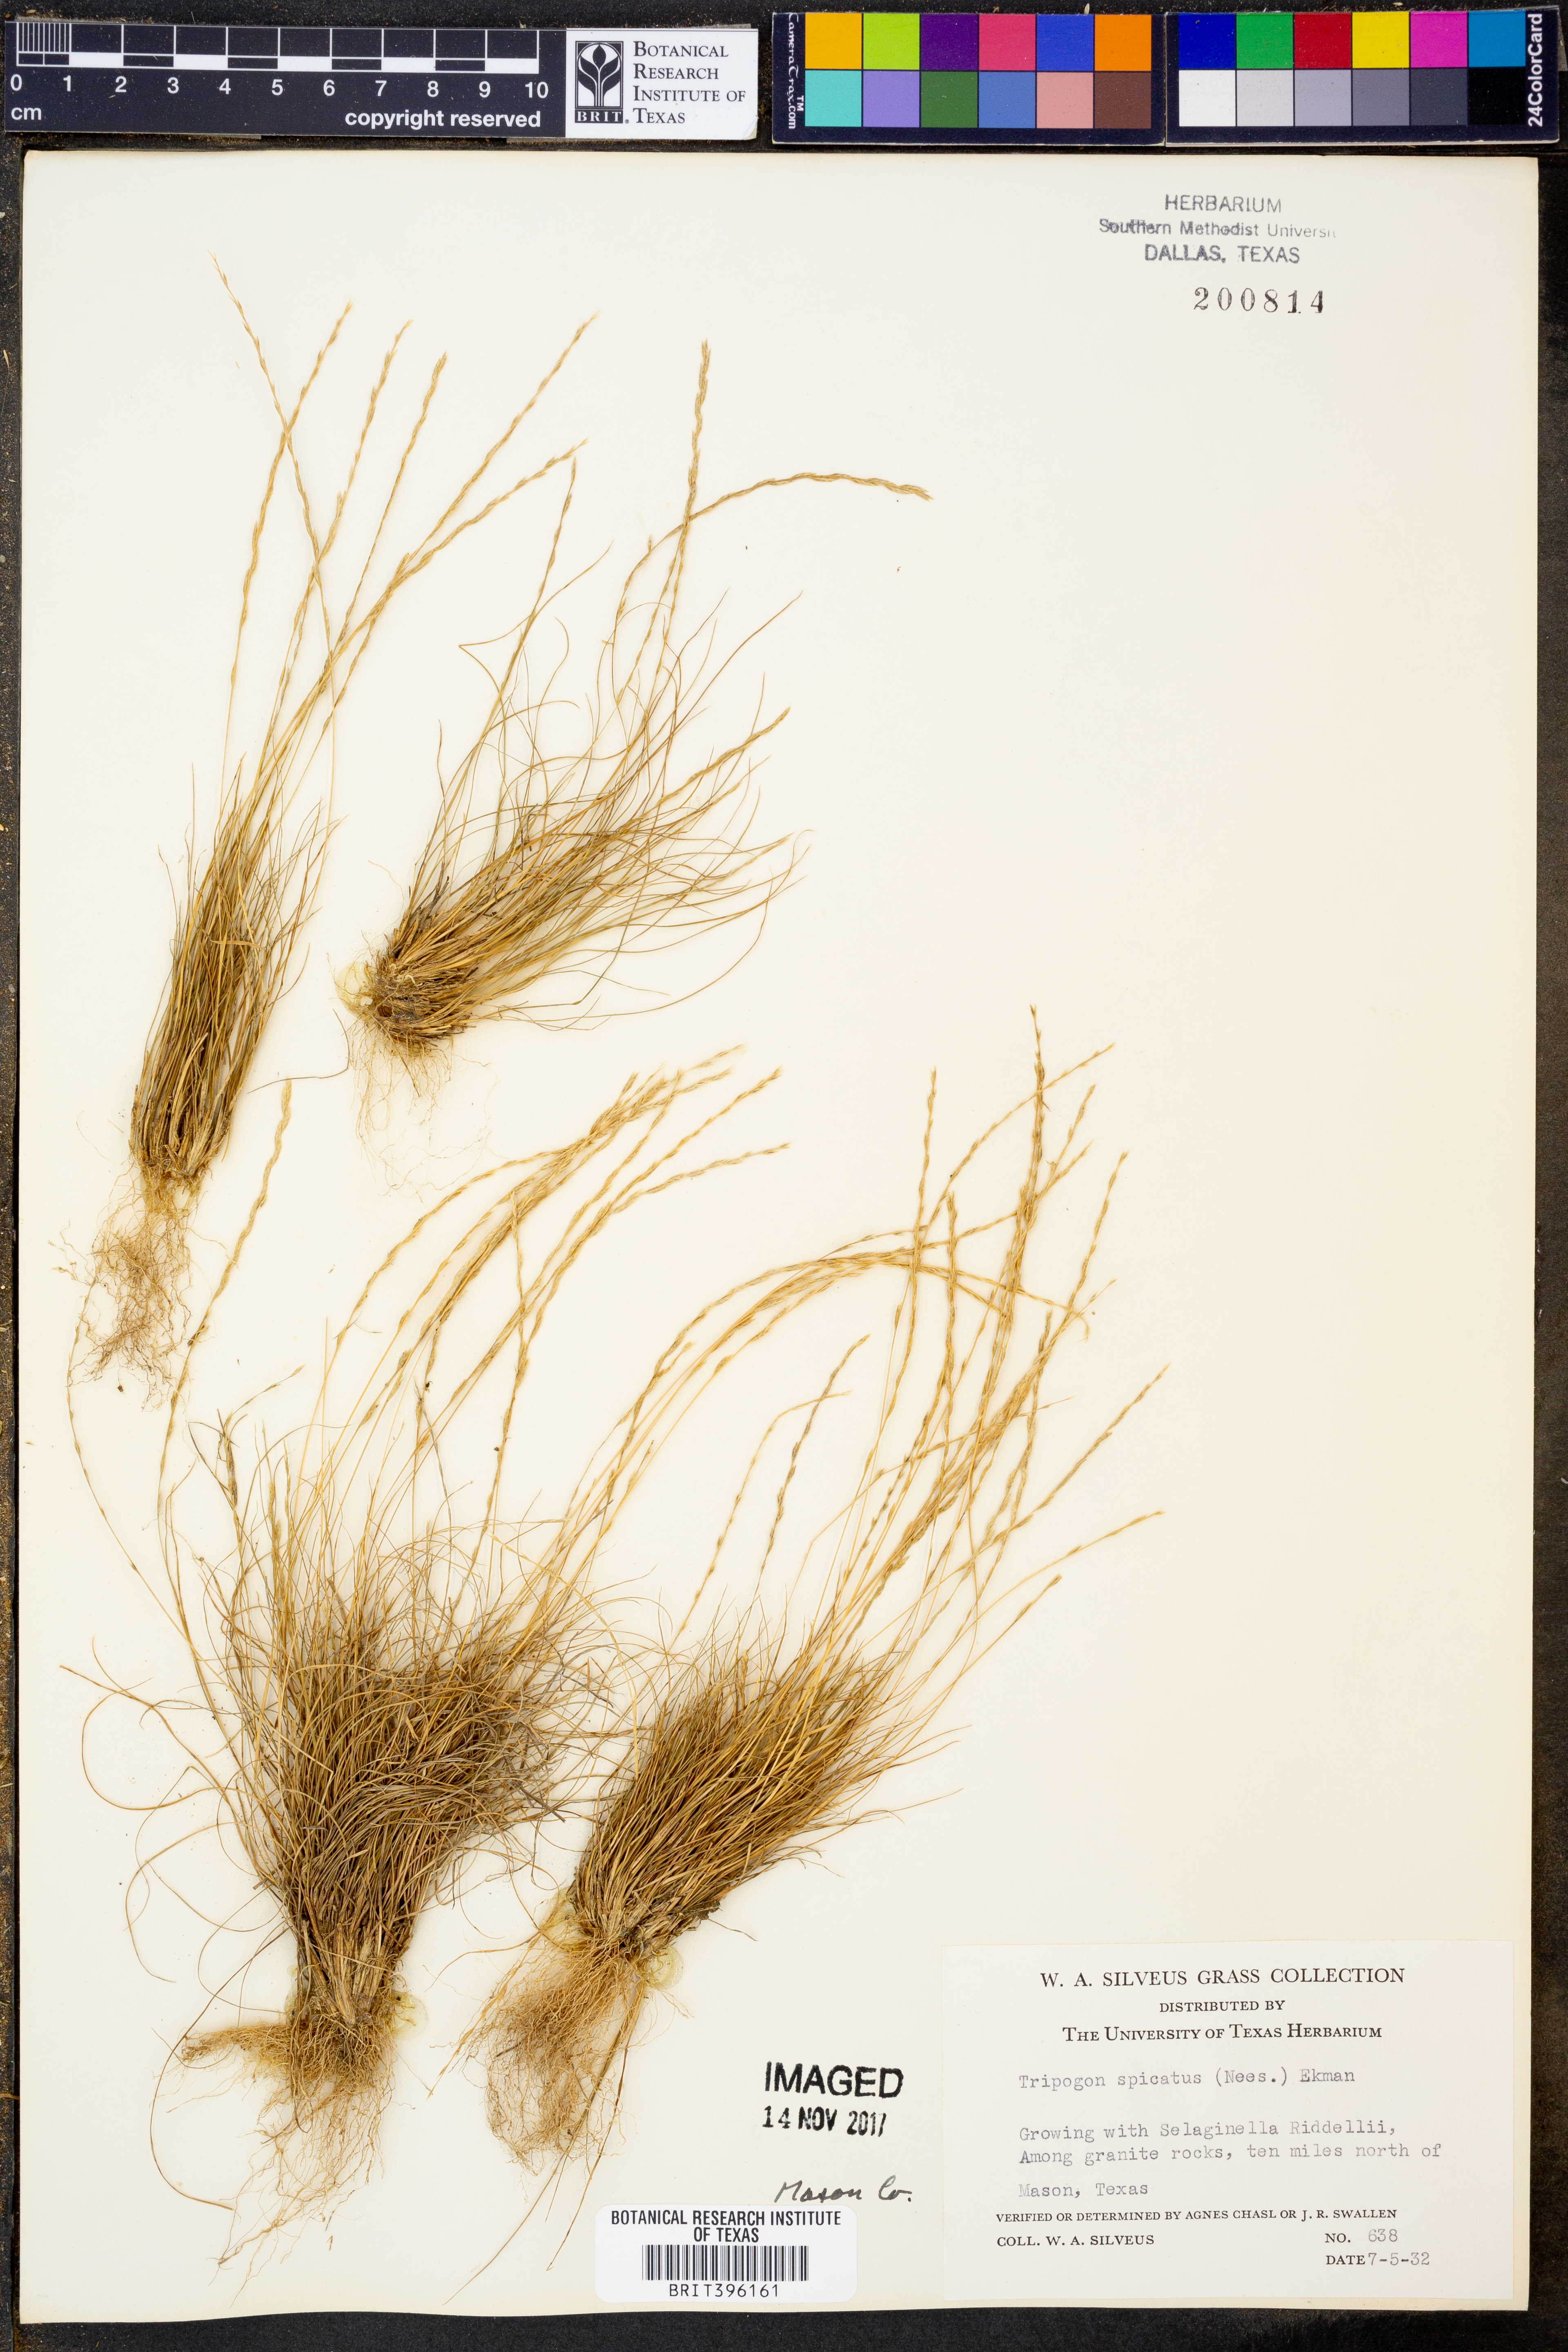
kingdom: Plantae
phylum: Tracheophyta
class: Liliopsida
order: Poales
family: Poaceae
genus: Tripogonella
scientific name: Tripogonella spicata
